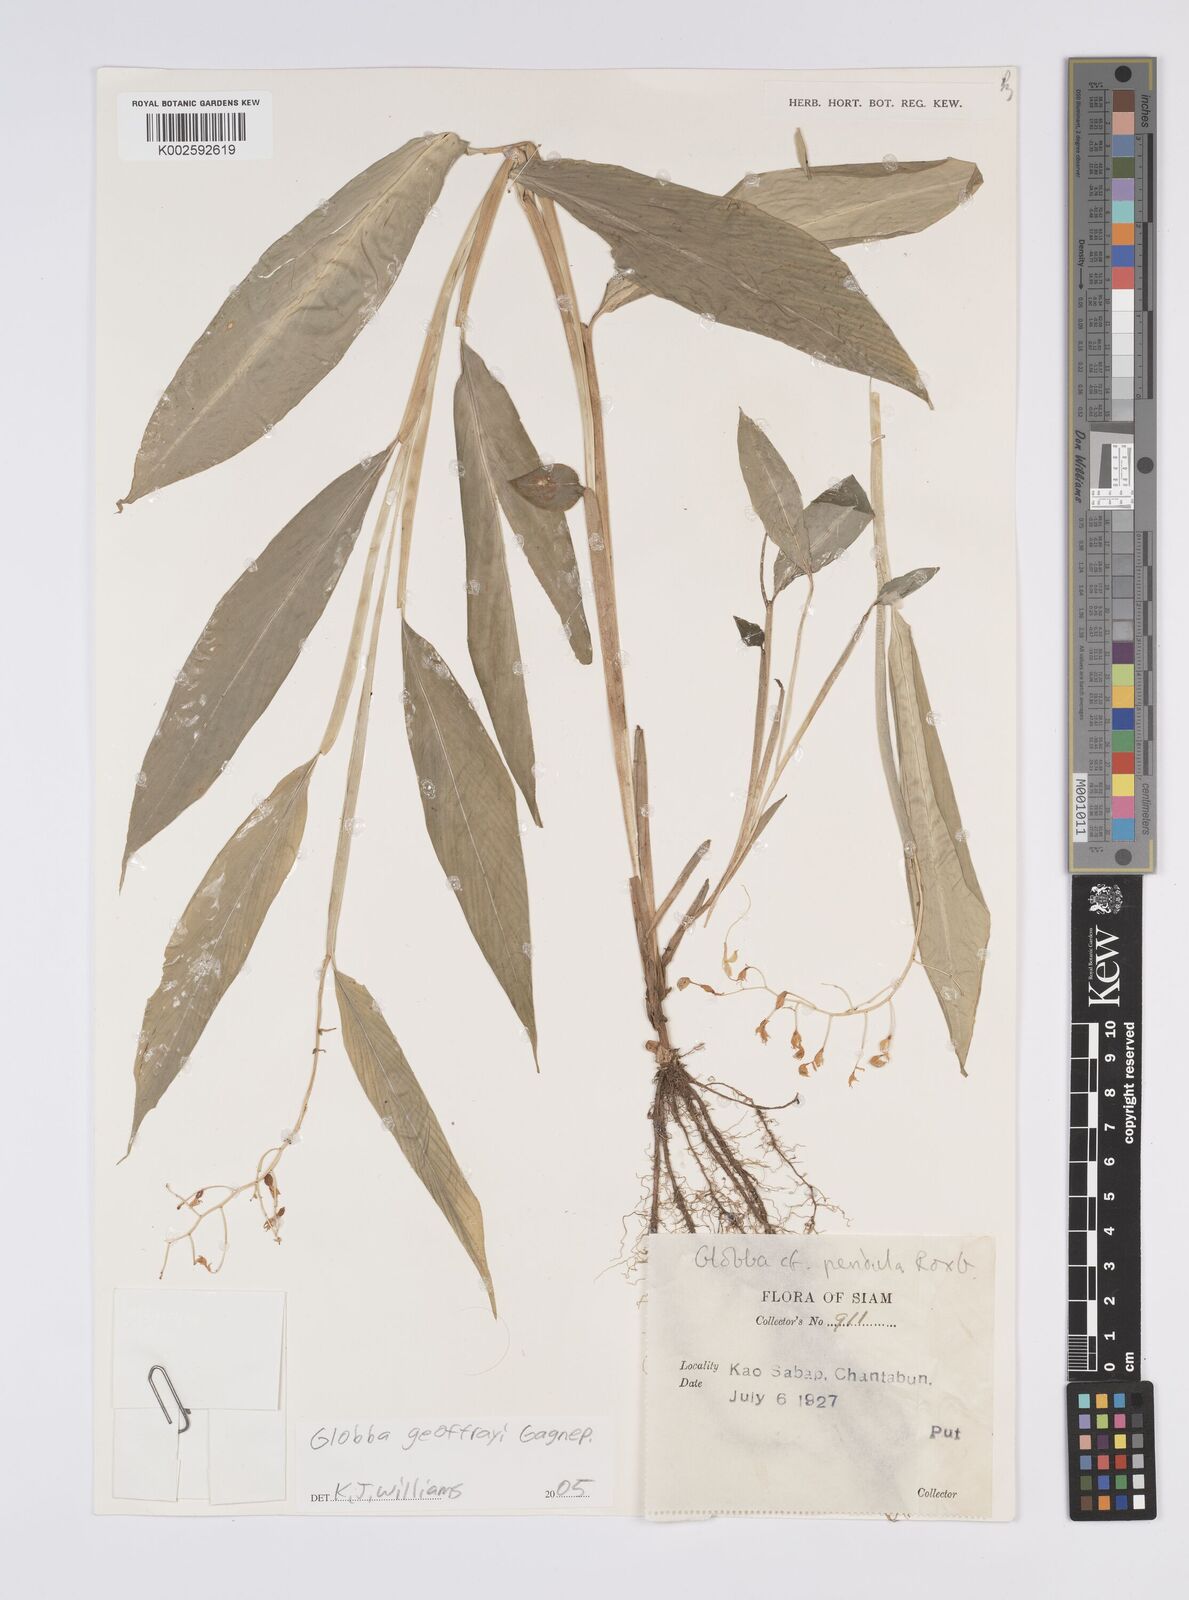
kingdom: Plantae
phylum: Tracheophyta
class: Liliopsida
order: Zingiberales
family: Zingiberaceae
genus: Globba
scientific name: Globba geoffrayi
